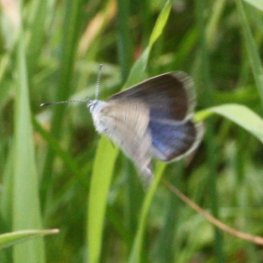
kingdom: Animalia
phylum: Arthropoda
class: Insecta
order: Lepidoptera
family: Lycaenidae
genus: Glaucopsyche
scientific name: Glaucopsyche lygdamus
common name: Silvery Blue
